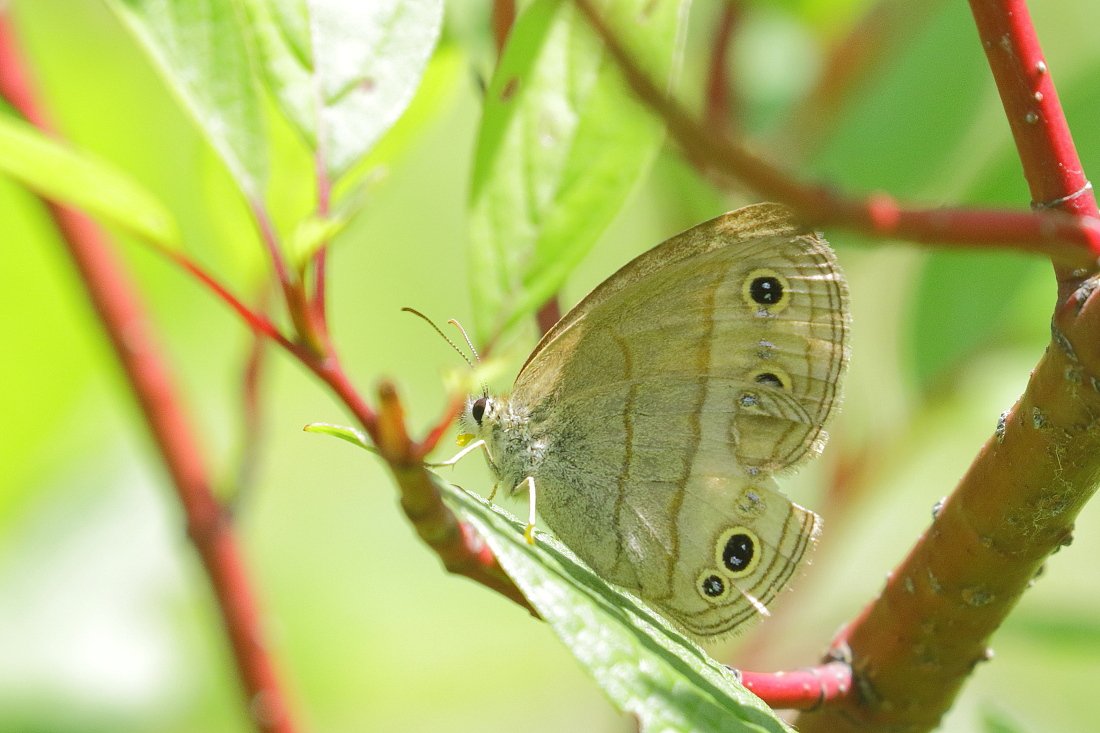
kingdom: Animalia
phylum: Arthropoda
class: Insecta
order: Lepidoptera
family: Nymphalidae
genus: Euptychia
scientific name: Euptychia cymela
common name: Little Wood Satyr
